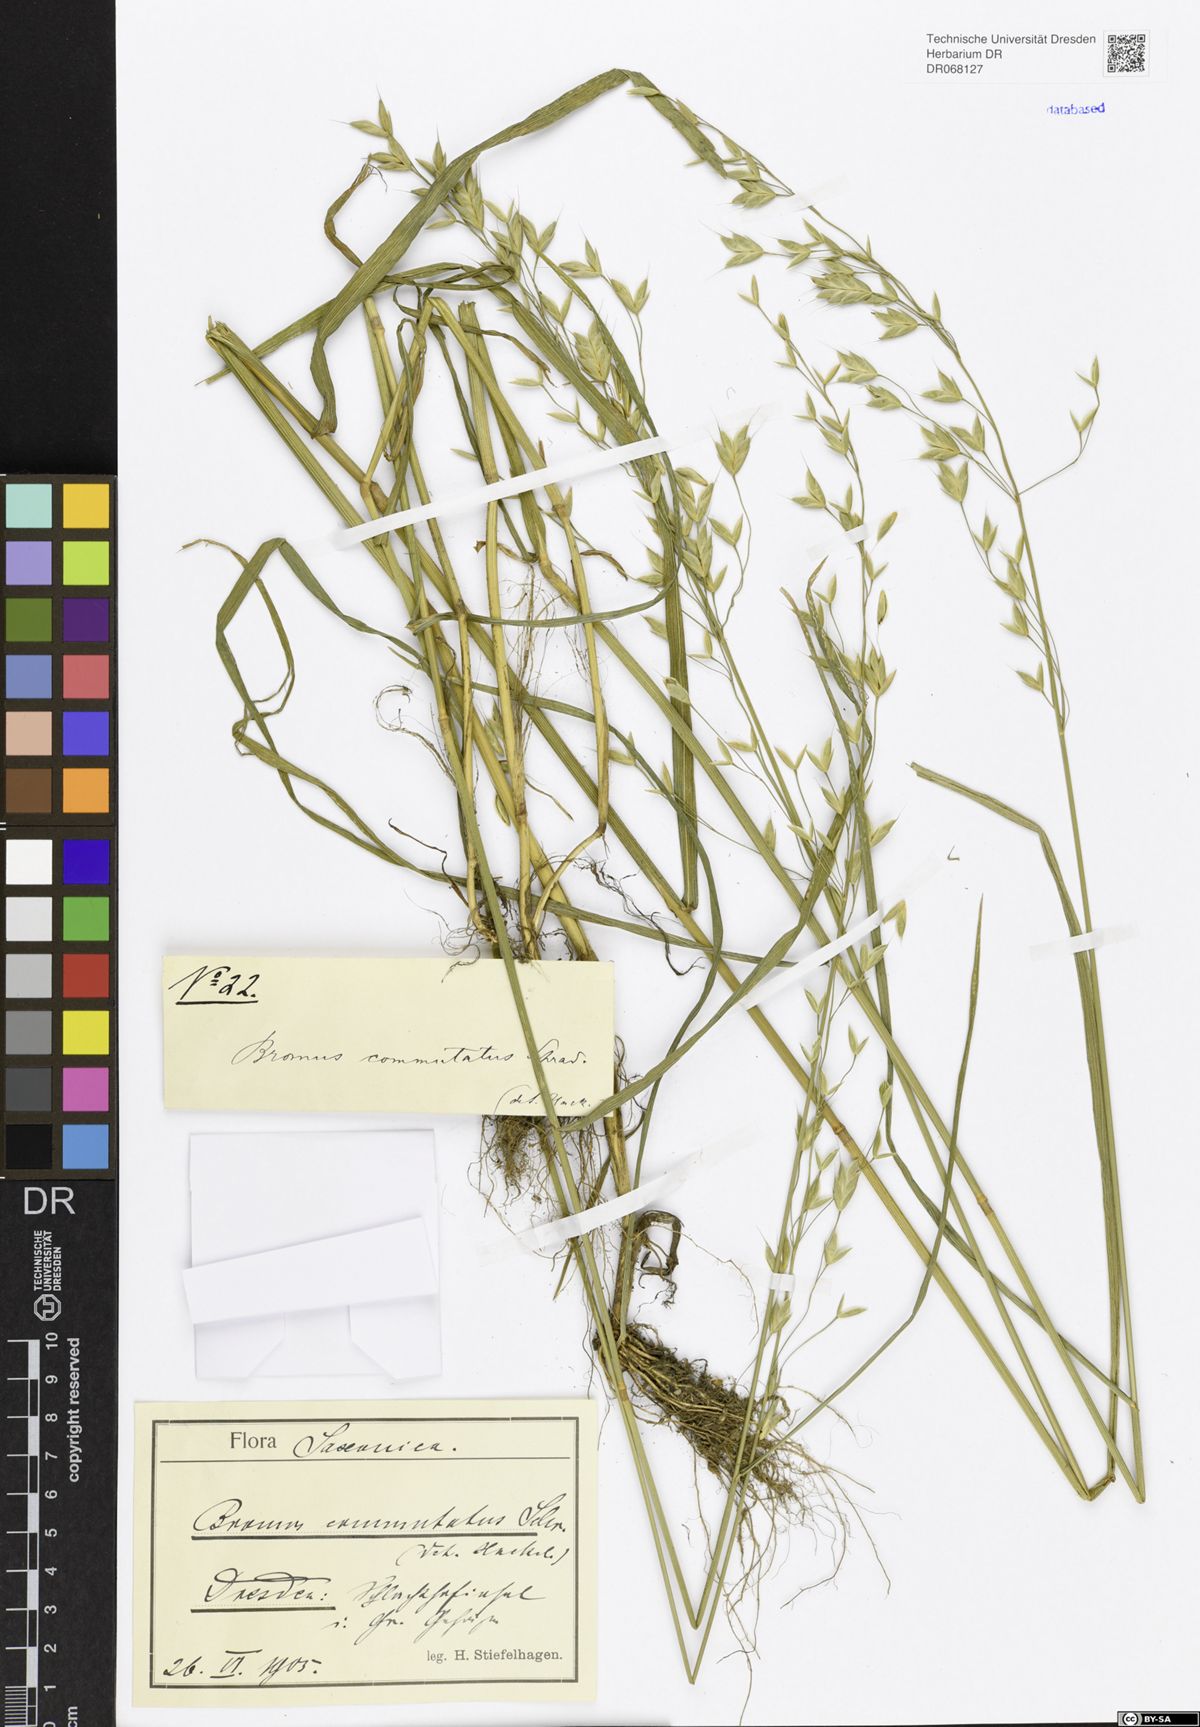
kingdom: Plantae
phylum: Tracheophyta
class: Liliopsida
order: Poales
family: Poaceae
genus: Bromus
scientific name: Bromus commutatus
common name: Meadow brome
